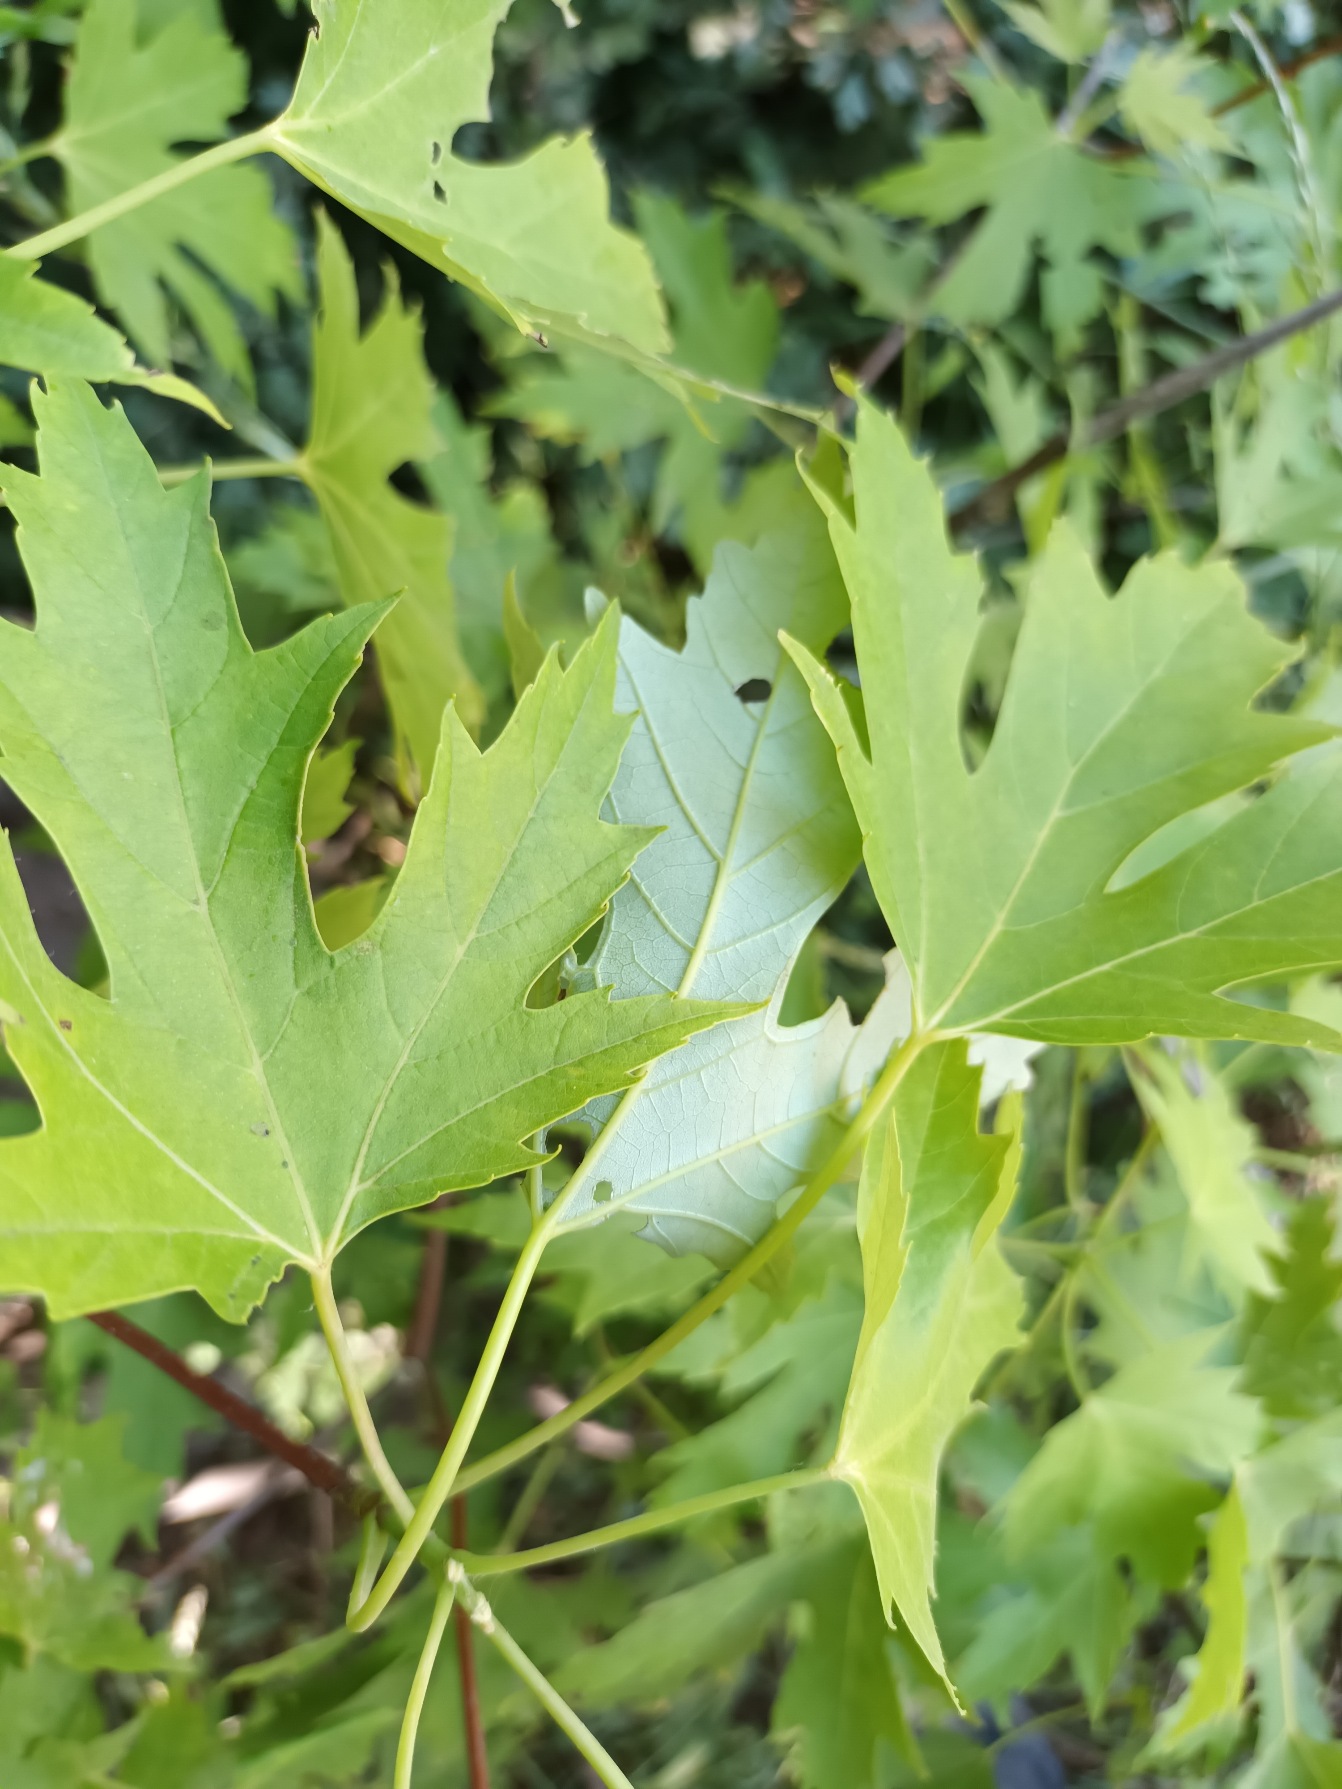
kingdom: Plantae
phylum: Tracheophyta
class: Magnoliopsida
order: Sapindales
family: Sapindaceae
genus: Acer
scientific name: Acer saccharinum
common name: Sølv-løn
